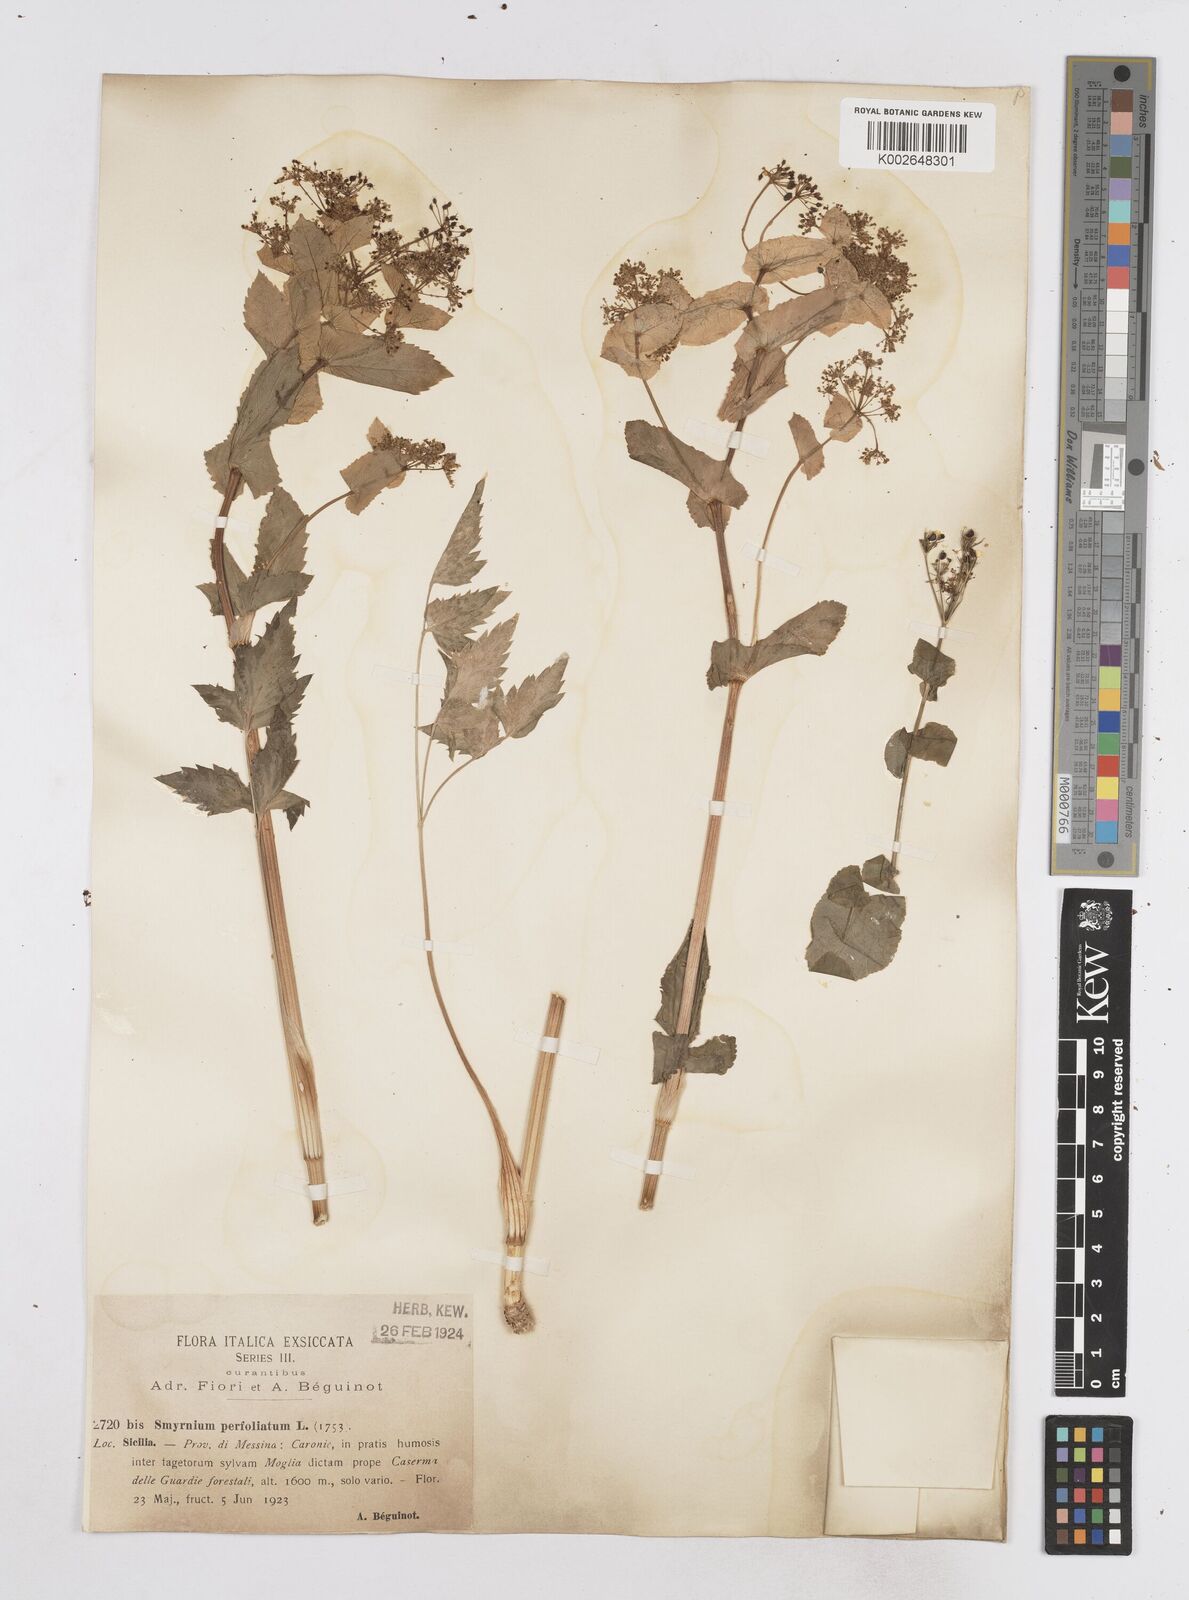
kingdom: Plantae
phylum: Tracheophyta
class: Magnoliopsida
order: Apiales
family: Apiaceae
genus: Smyrnium
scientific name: Smyrnium perfoliatum
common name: Perfoliate alexanders
